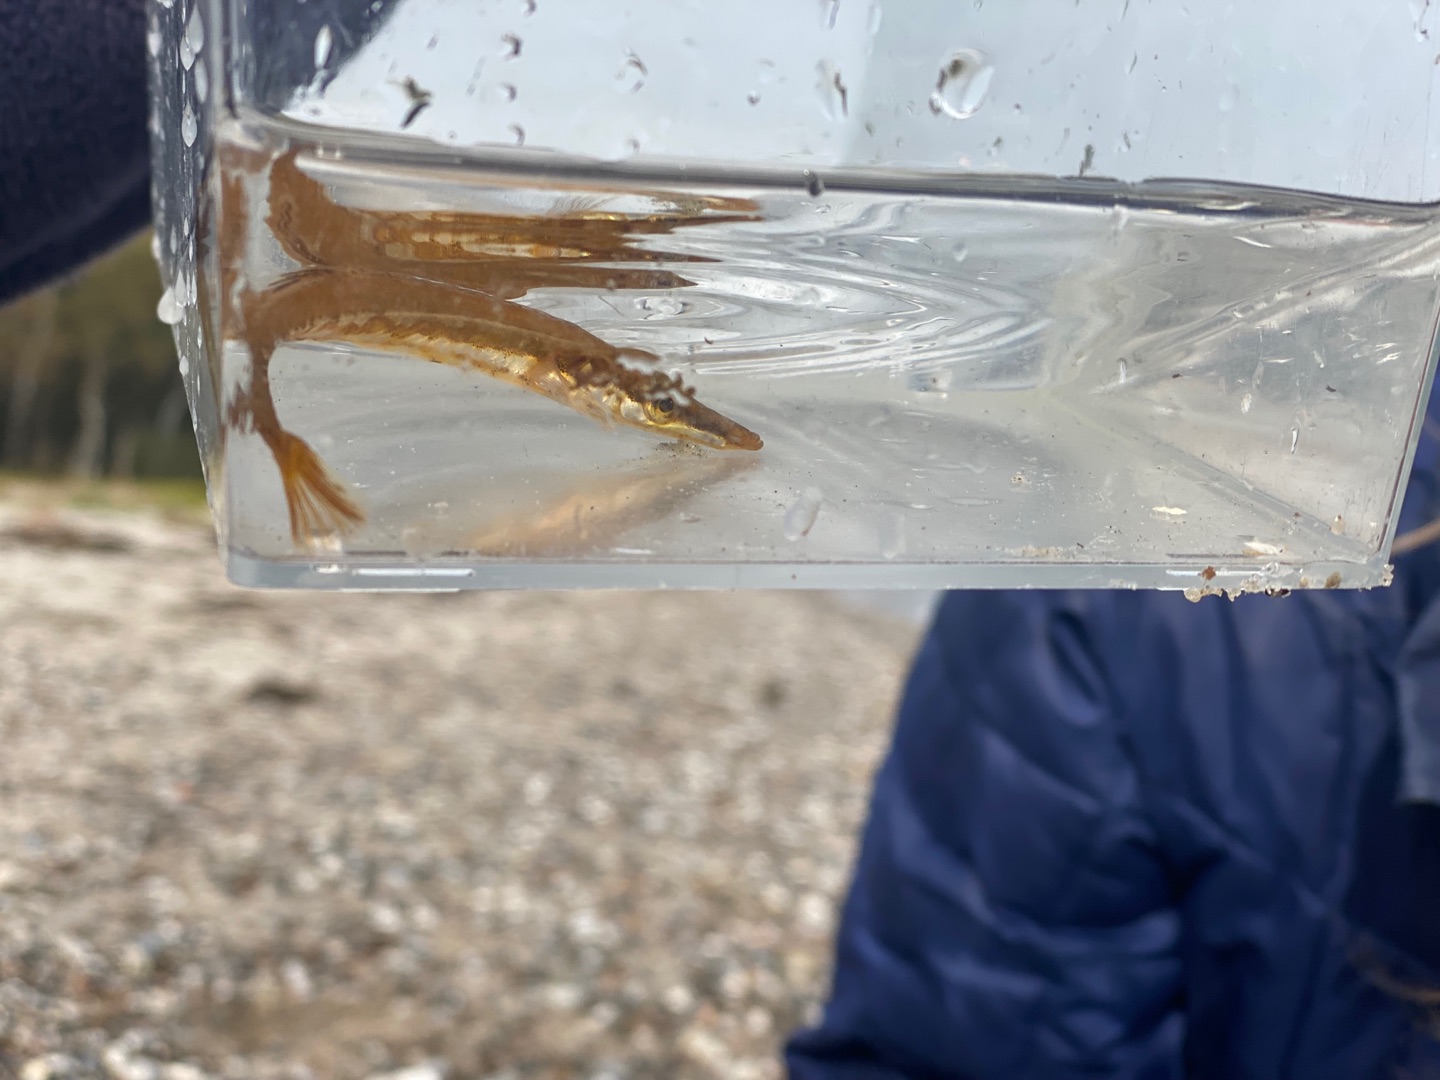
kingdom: Animalia
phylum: Chordata
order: Gasterosteiformes
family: Gasterosteidae
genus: Spinachia
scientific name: Spinachia spinachia
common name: Tangsnarre
